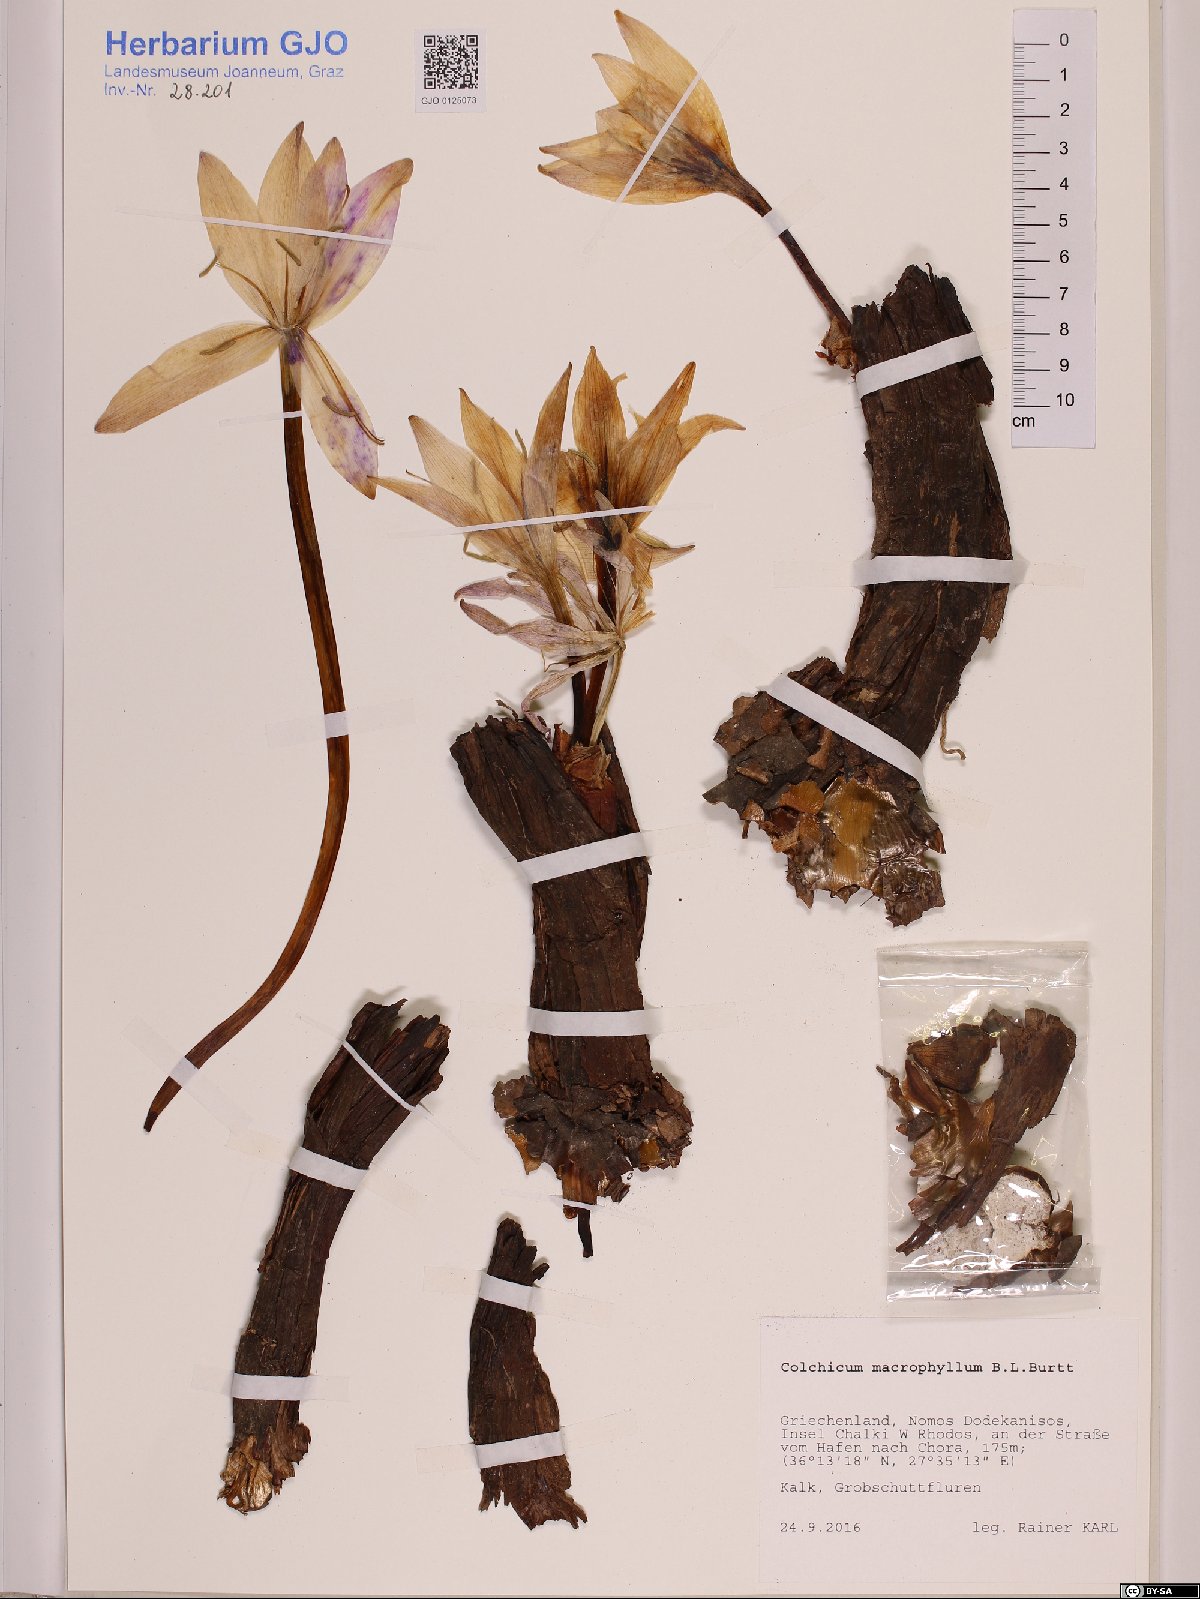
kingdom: Plantae
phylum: Tracheophyta
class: Liliopsida
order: Liliales
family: Colchicaceae
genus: Colchicum
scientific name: Colchicum macrophyllum
